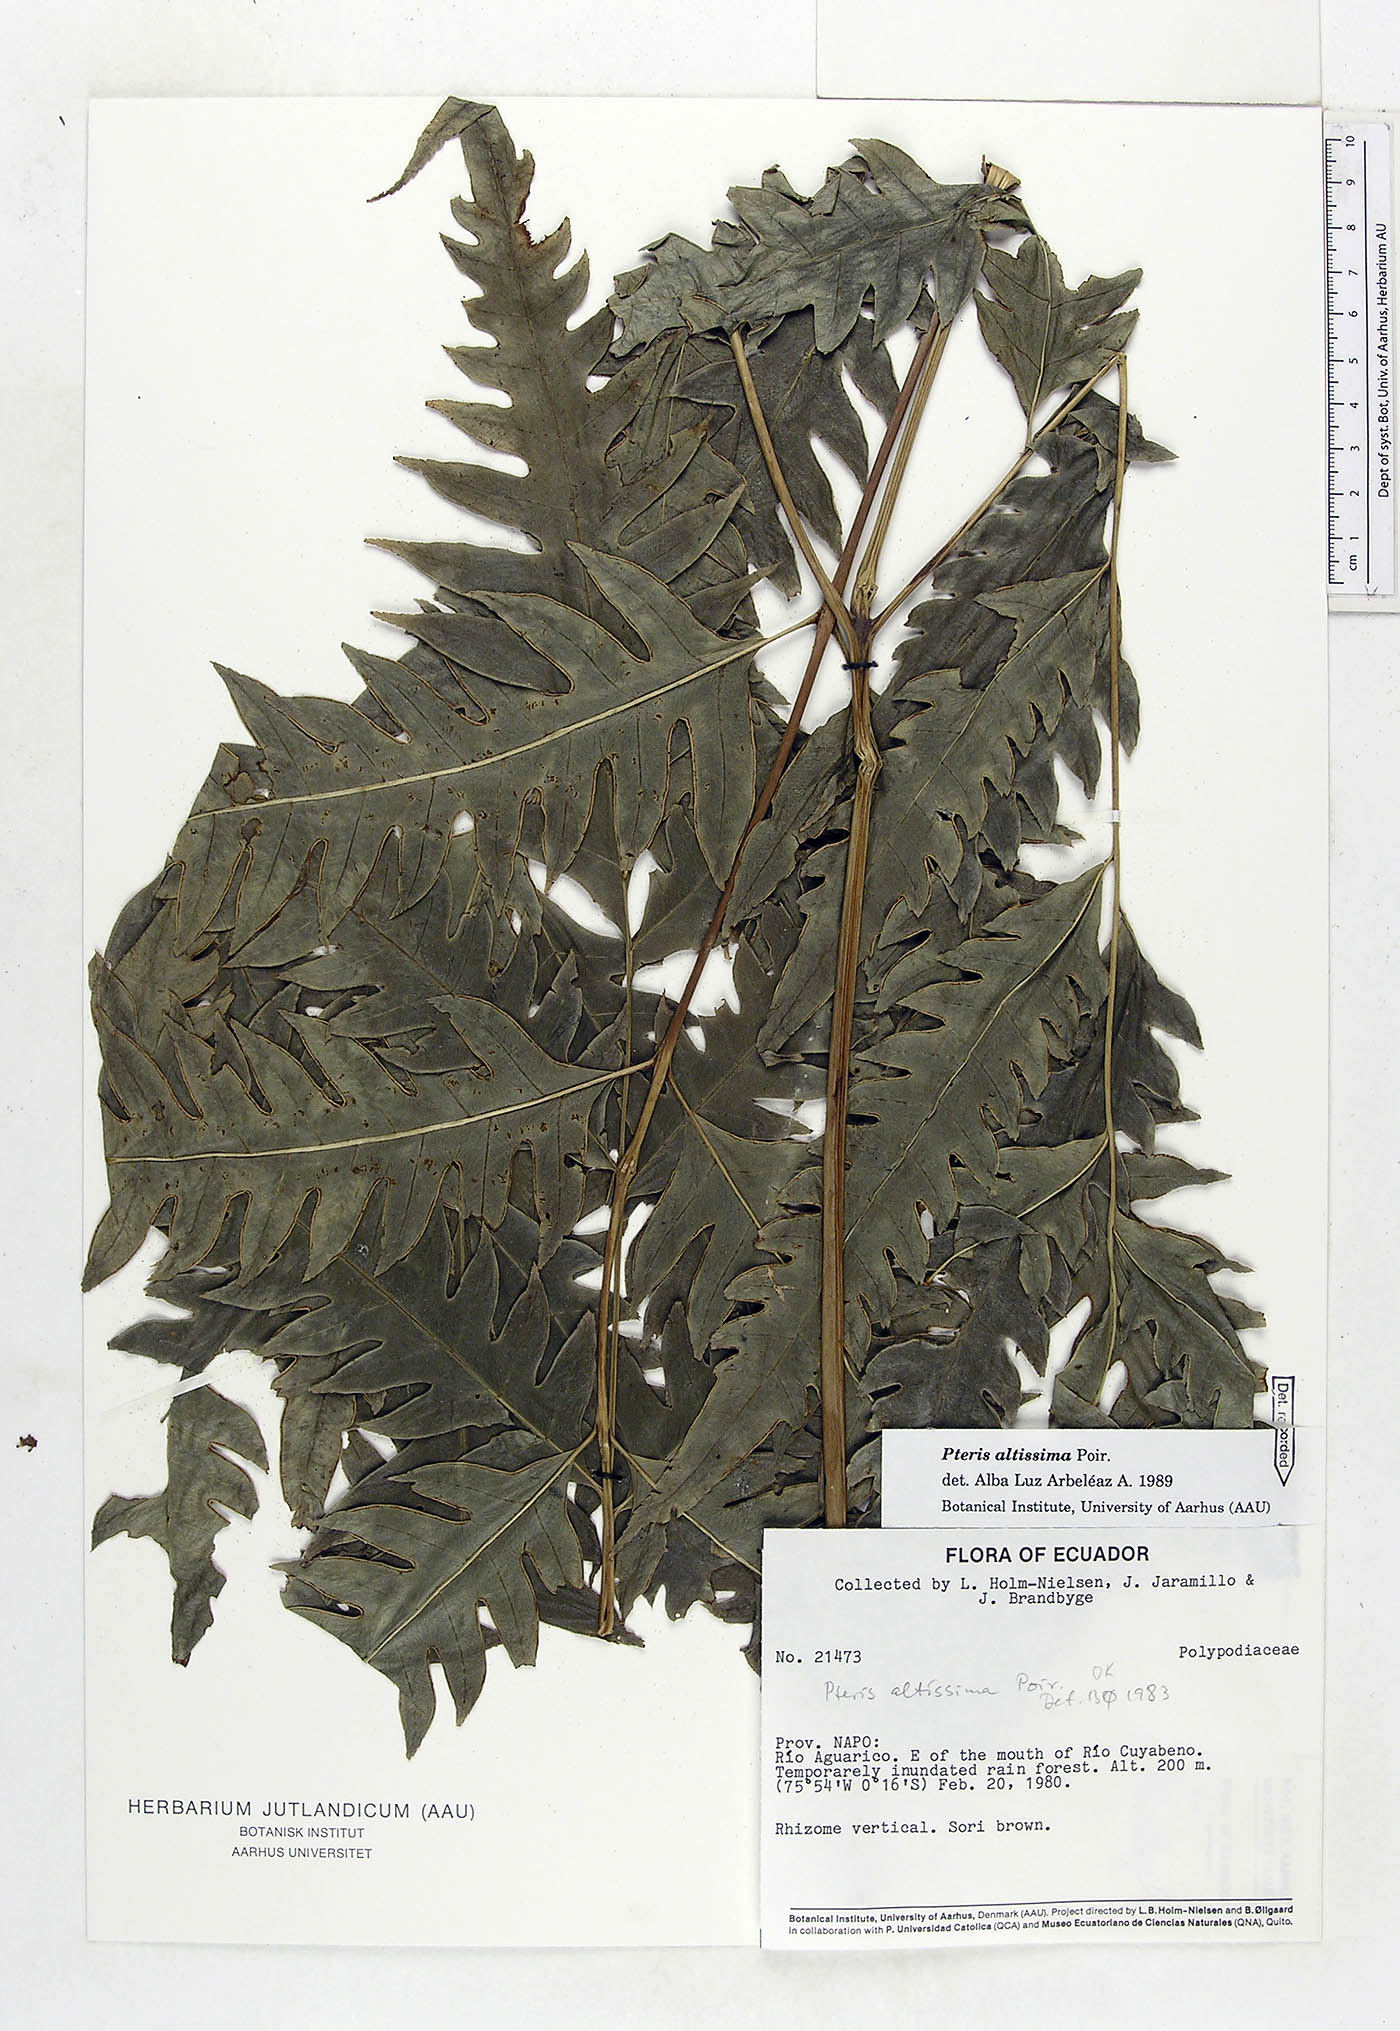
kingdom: Plantae
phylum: Tracheophyta
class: Polypodiopsida
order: Polypodiales
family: Pteridaceae
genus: Pteris
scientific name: Pteris altissima
